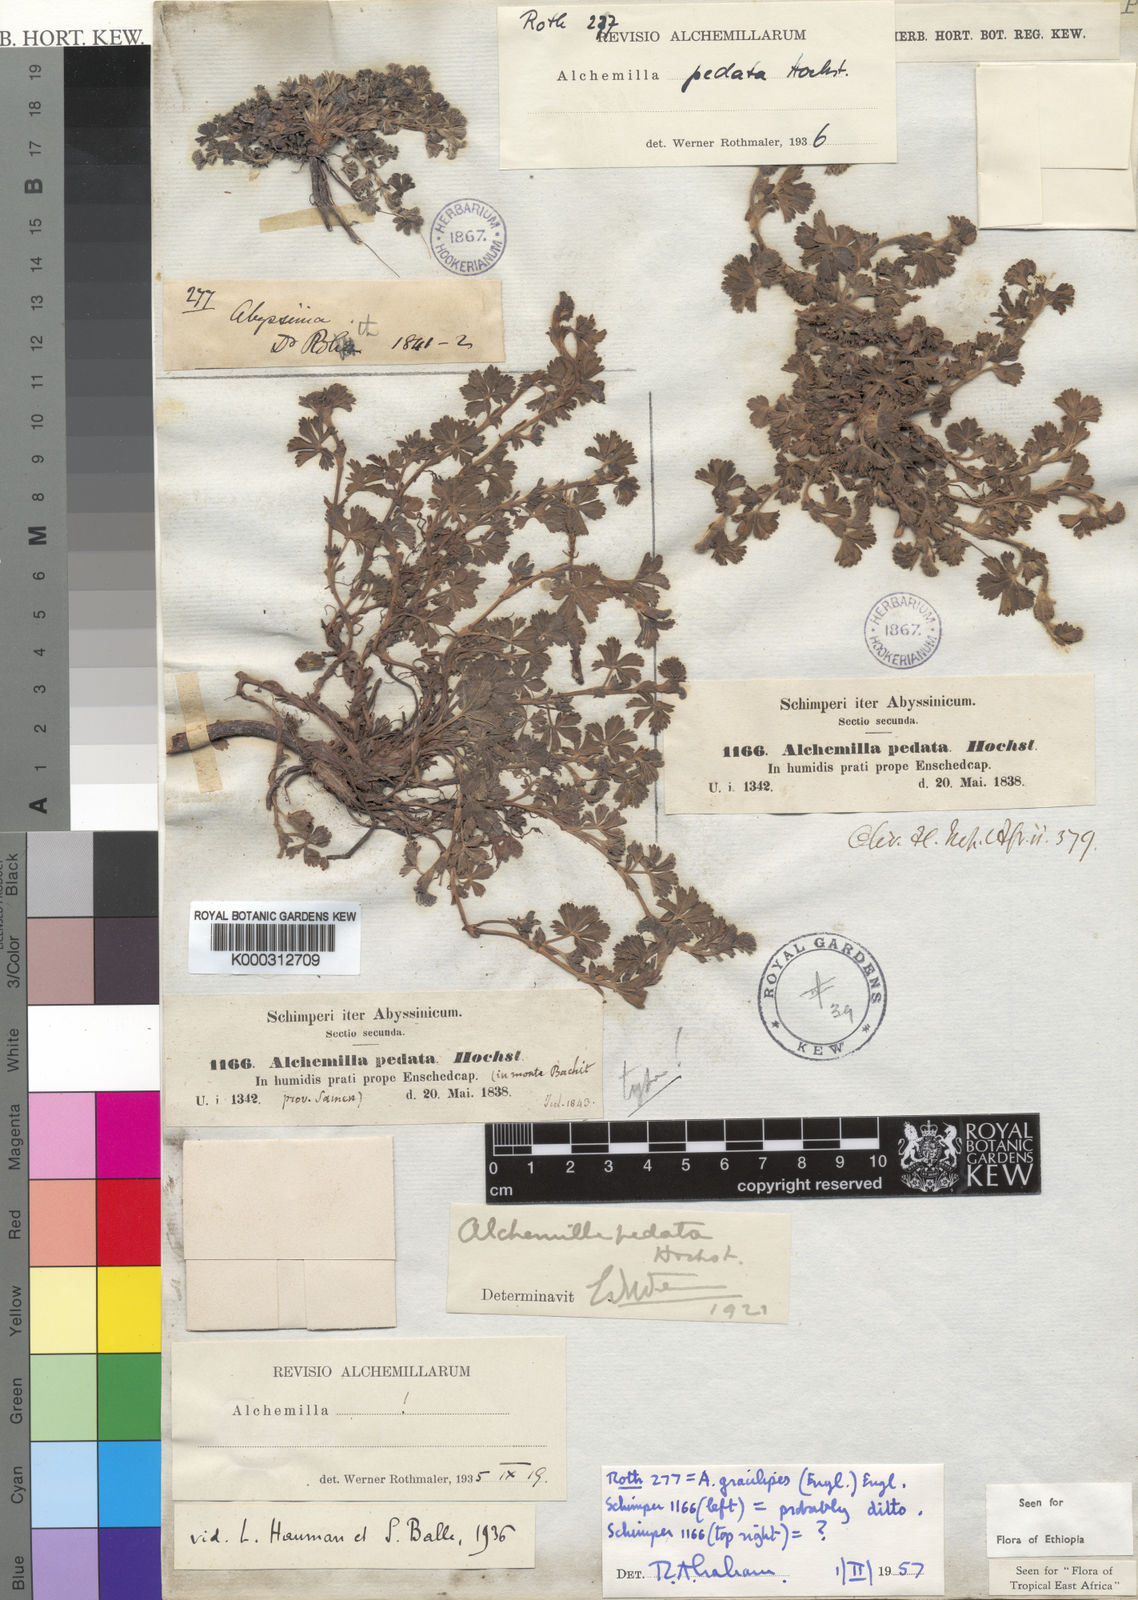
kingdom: Plantae
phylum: Tracheophyta
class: Magnoliopsida
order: Rosales
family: Rosaceae
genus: Alchemilla
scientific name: Alchemilla pedata
